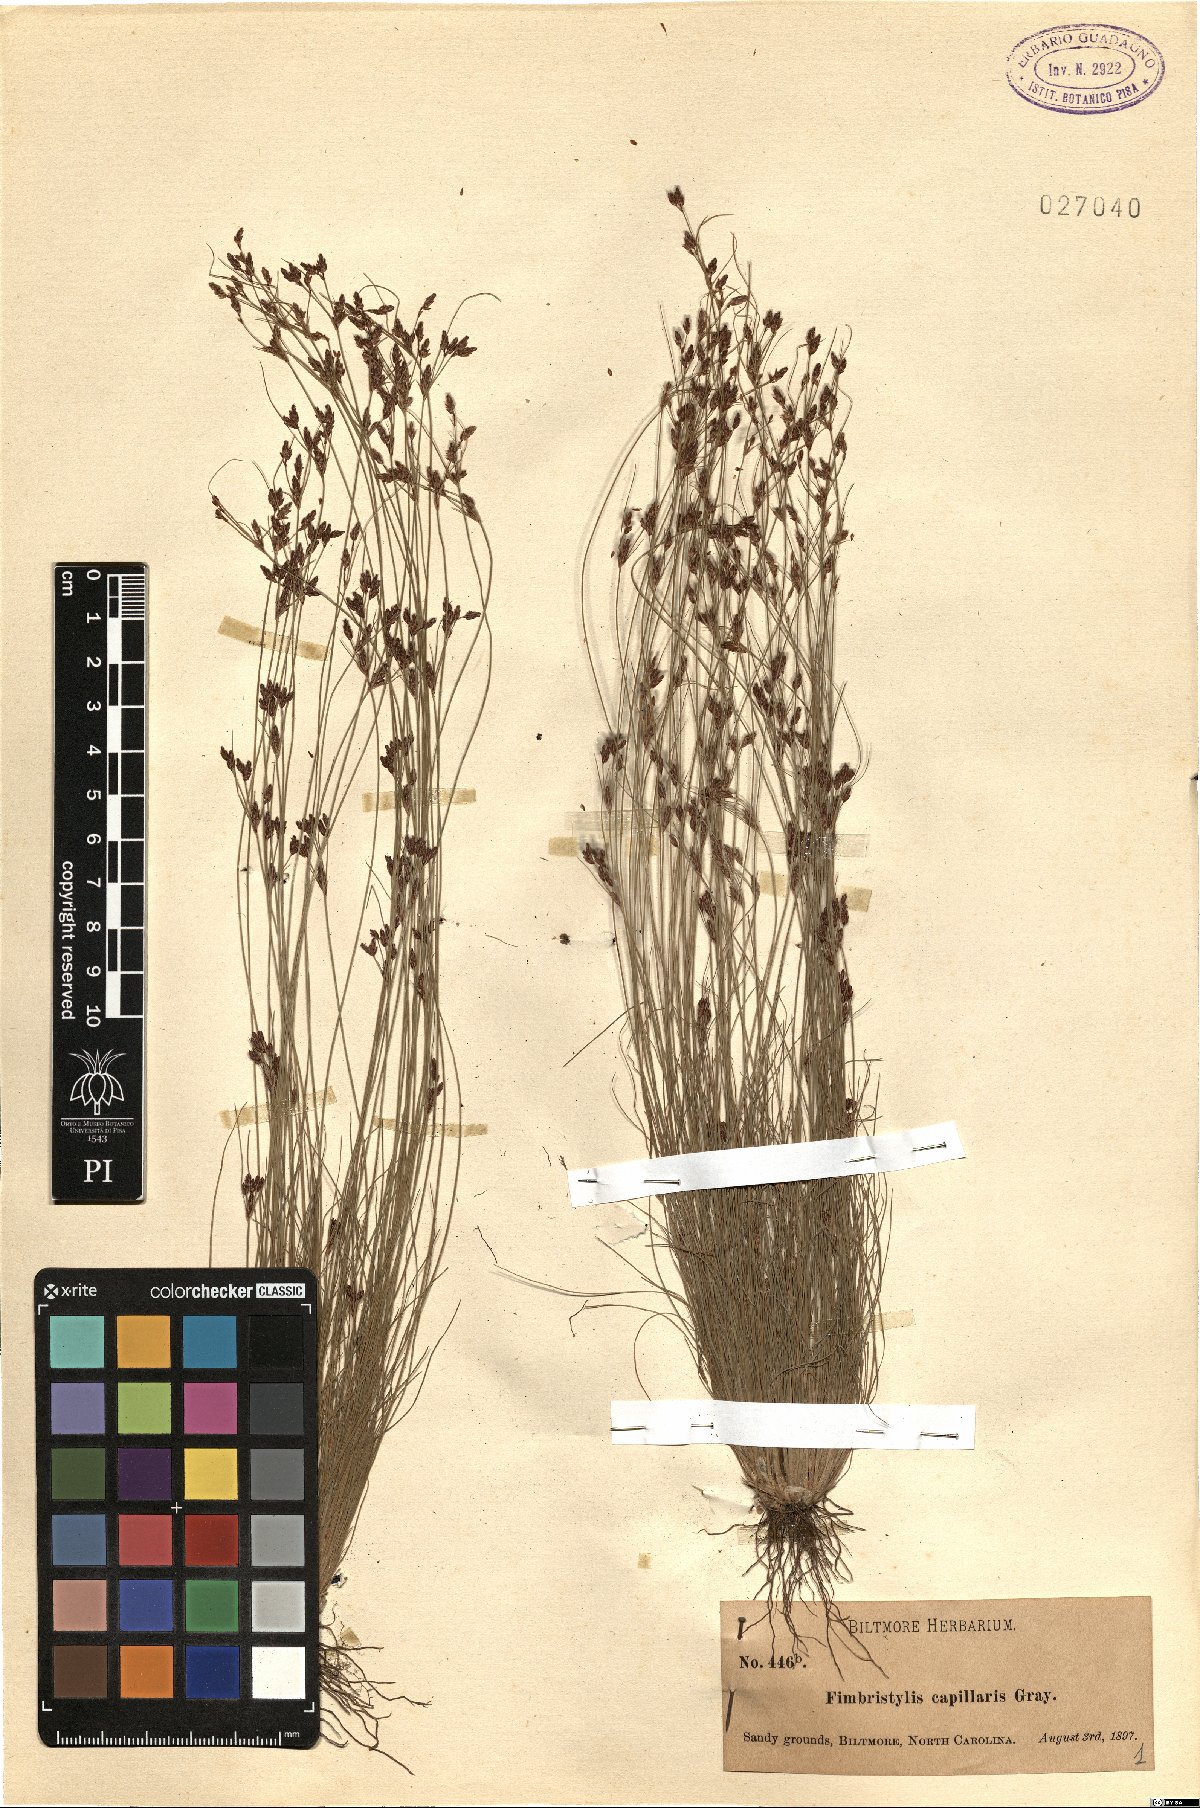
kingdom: Plantae
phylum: Tracheophyta
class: Liliopsida
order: Poales
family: Cyperaceae
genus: Bulbostylis
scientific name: Bulbostylis capillaris
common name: Densetuft hairsedge
